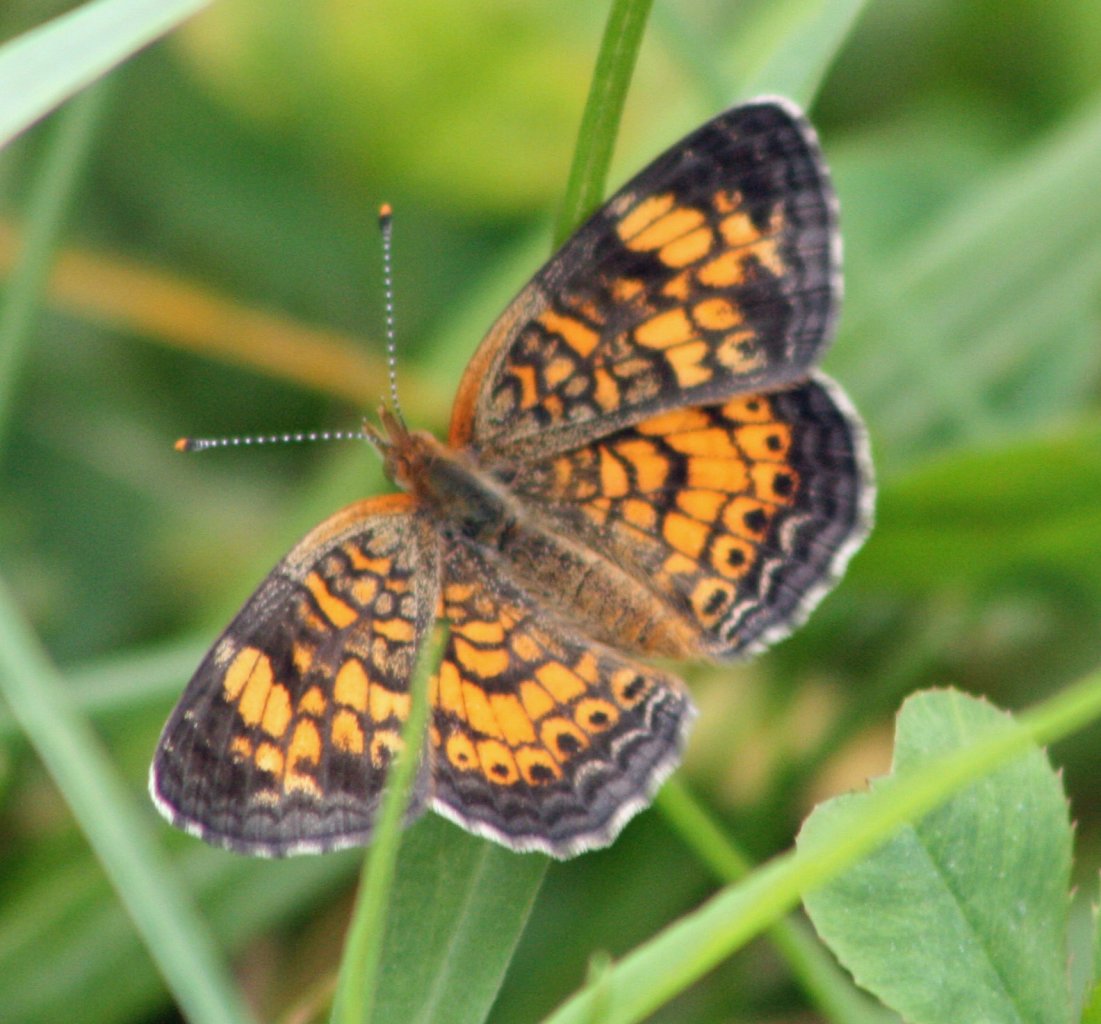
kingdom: Animalia
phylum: Arthropoda
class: Insecta
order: Lepidoptera
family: Nymphalidae
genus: Phyciodes
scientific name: Phyciodes tharos
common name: Northern Crescent
